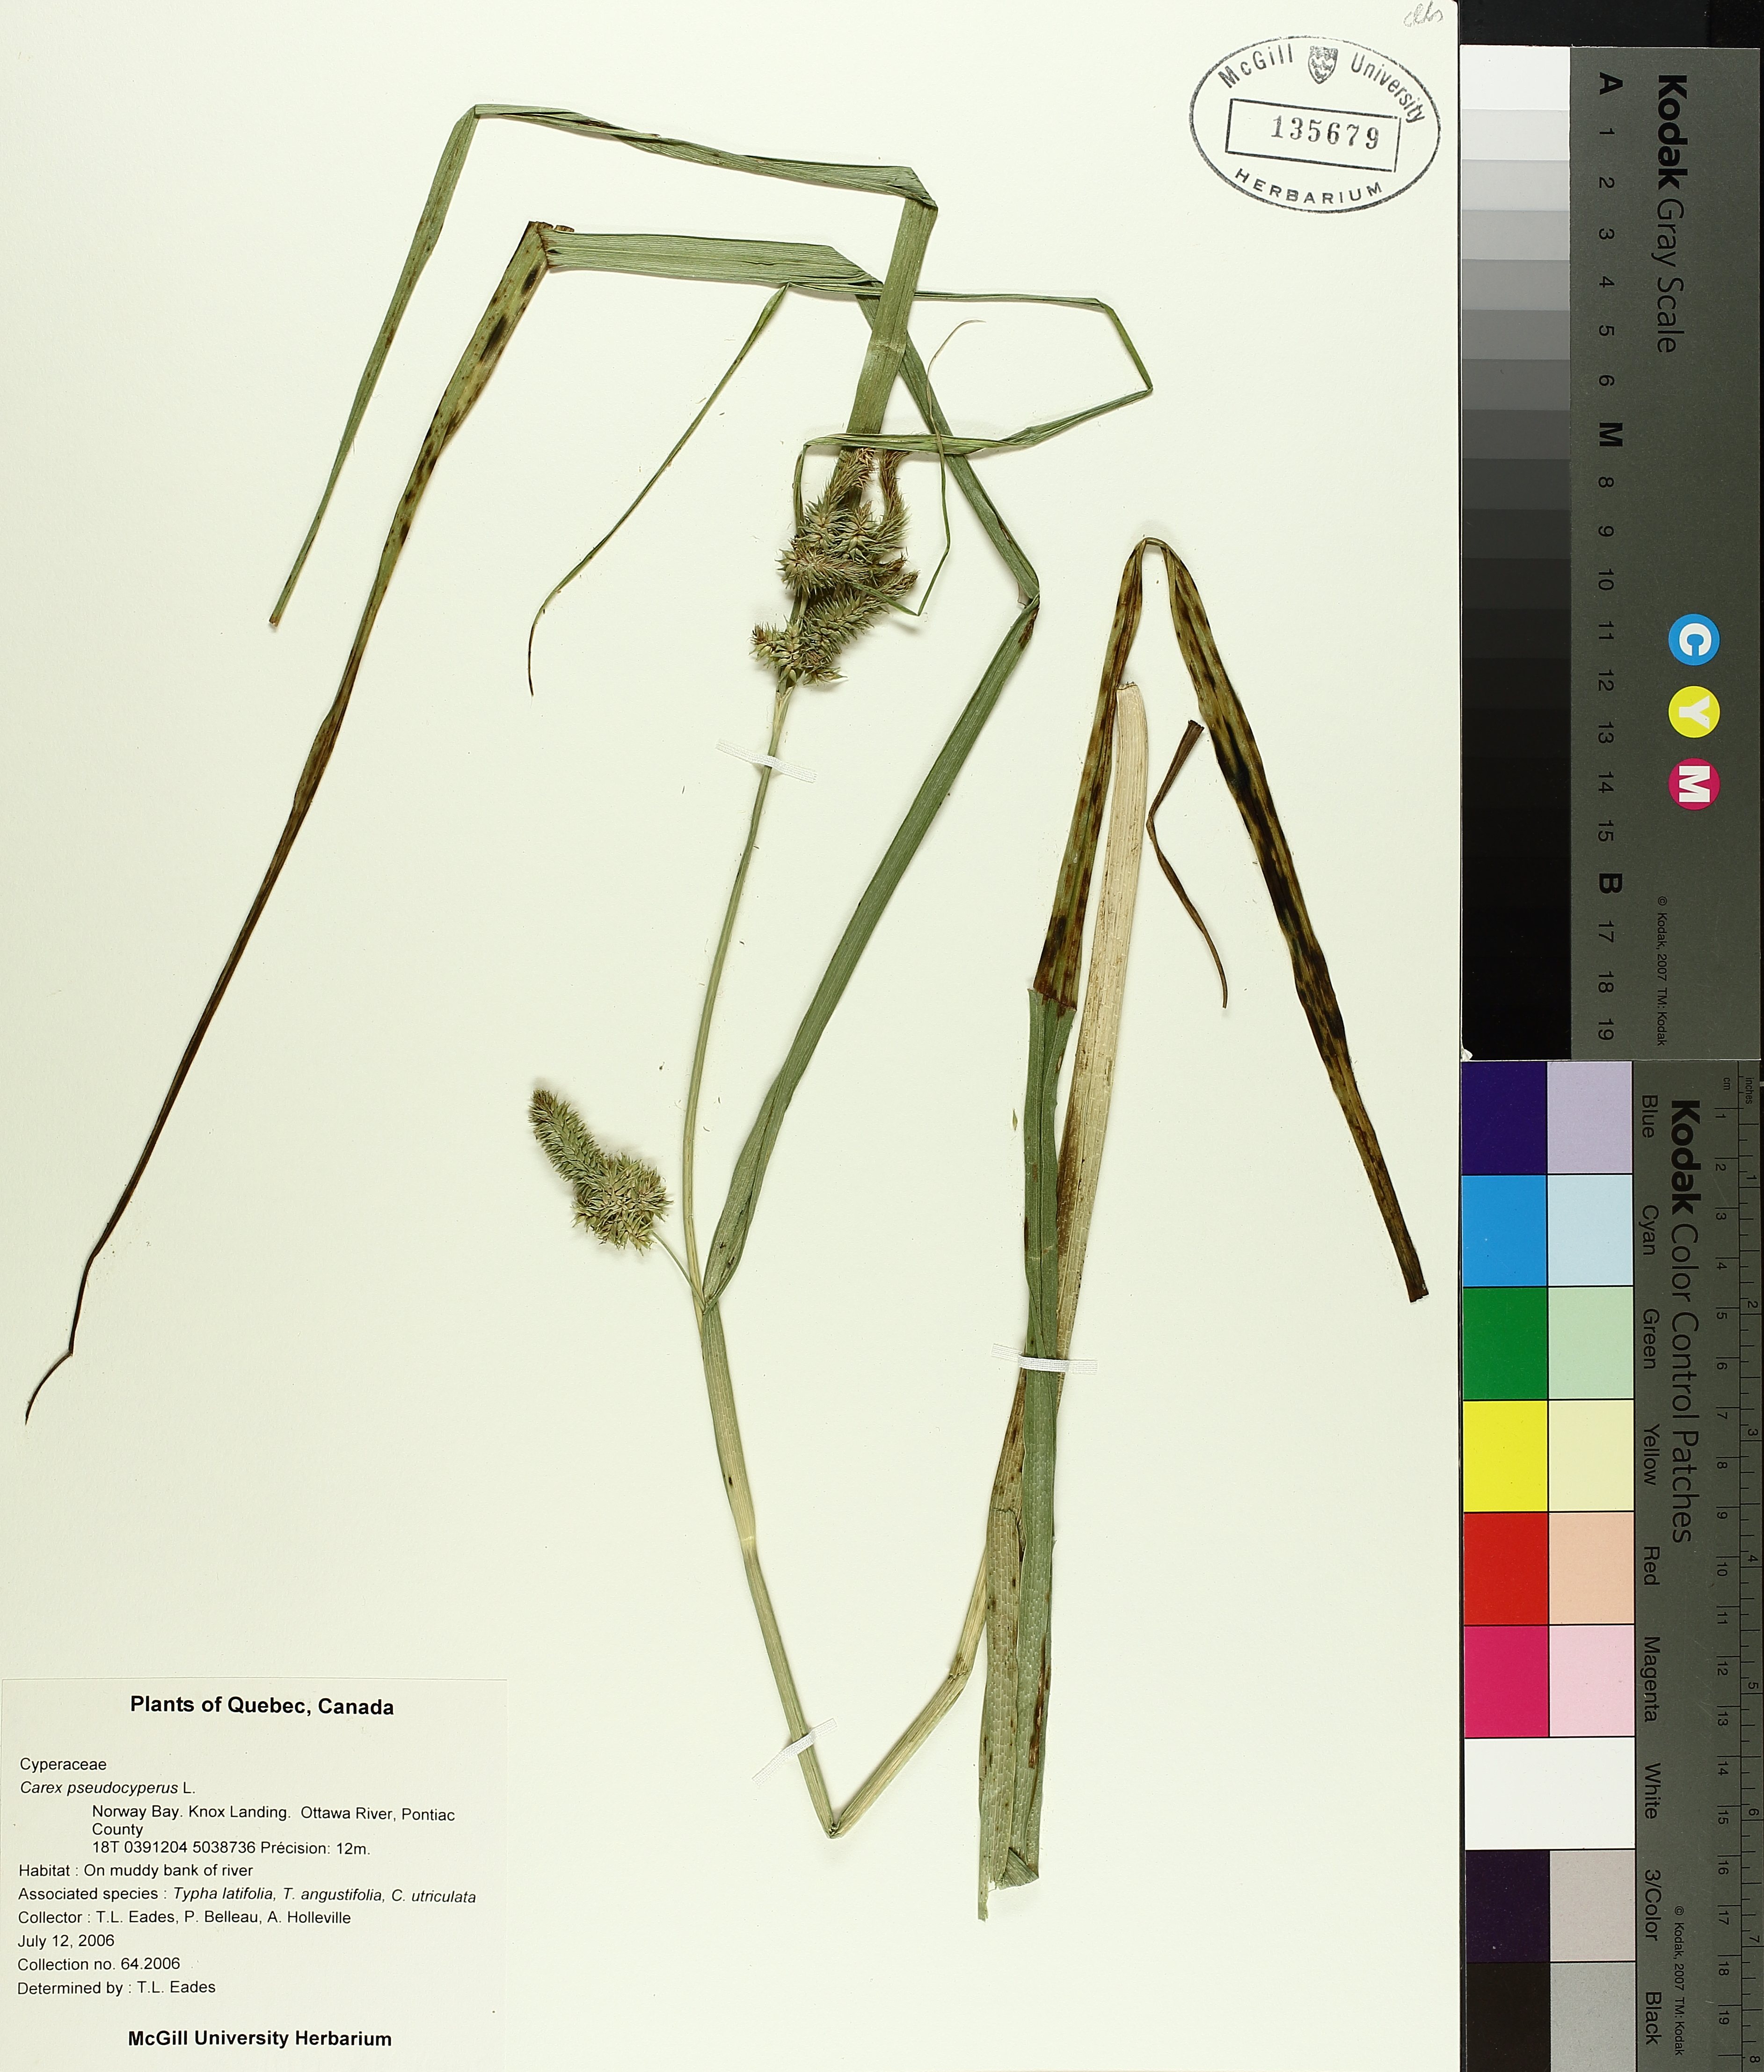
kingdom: Plantae
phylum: Tracheophyta
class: Liliopsida
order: Poales
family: Cyperaceae
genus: Carex
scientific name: Carex pseudocyperus
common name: Cyperus sedge
